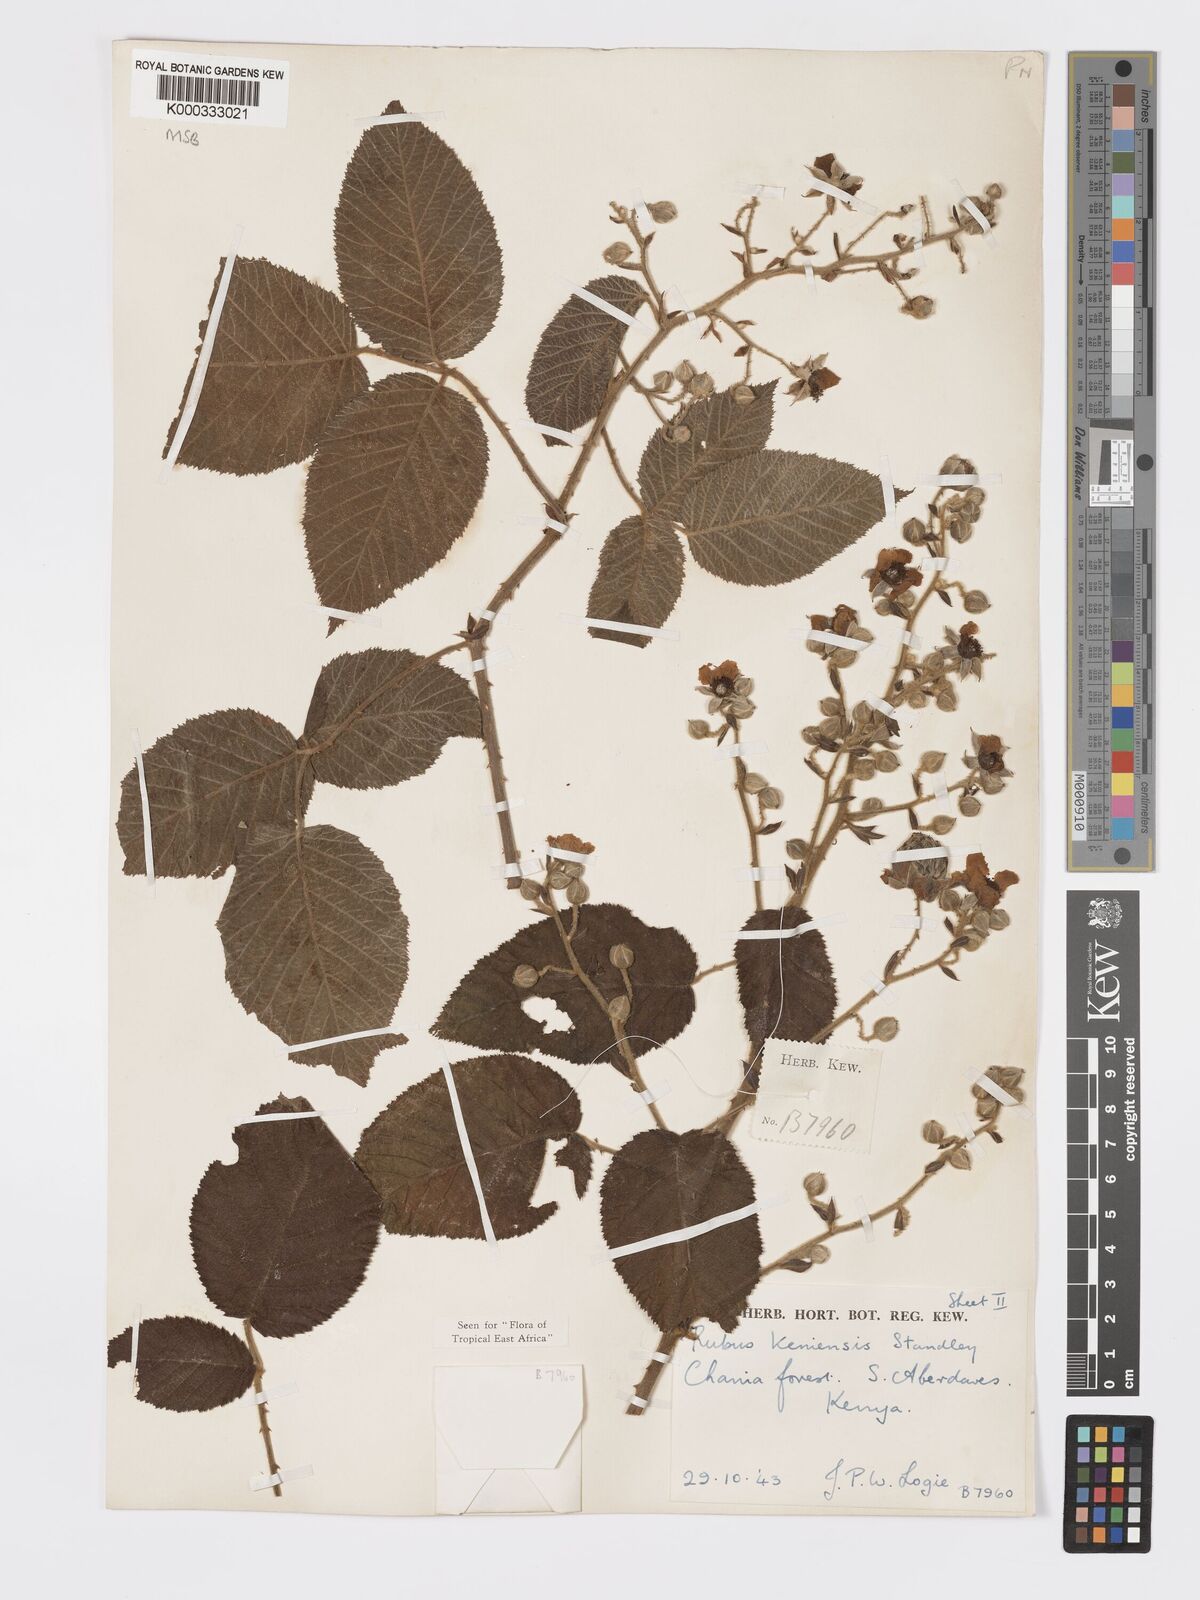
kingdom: Plantae
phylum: Tracheophyta
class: Magnoliopsida
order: Rosales
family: Rosaceae
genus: Rubus
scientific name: Rubus keniensis
